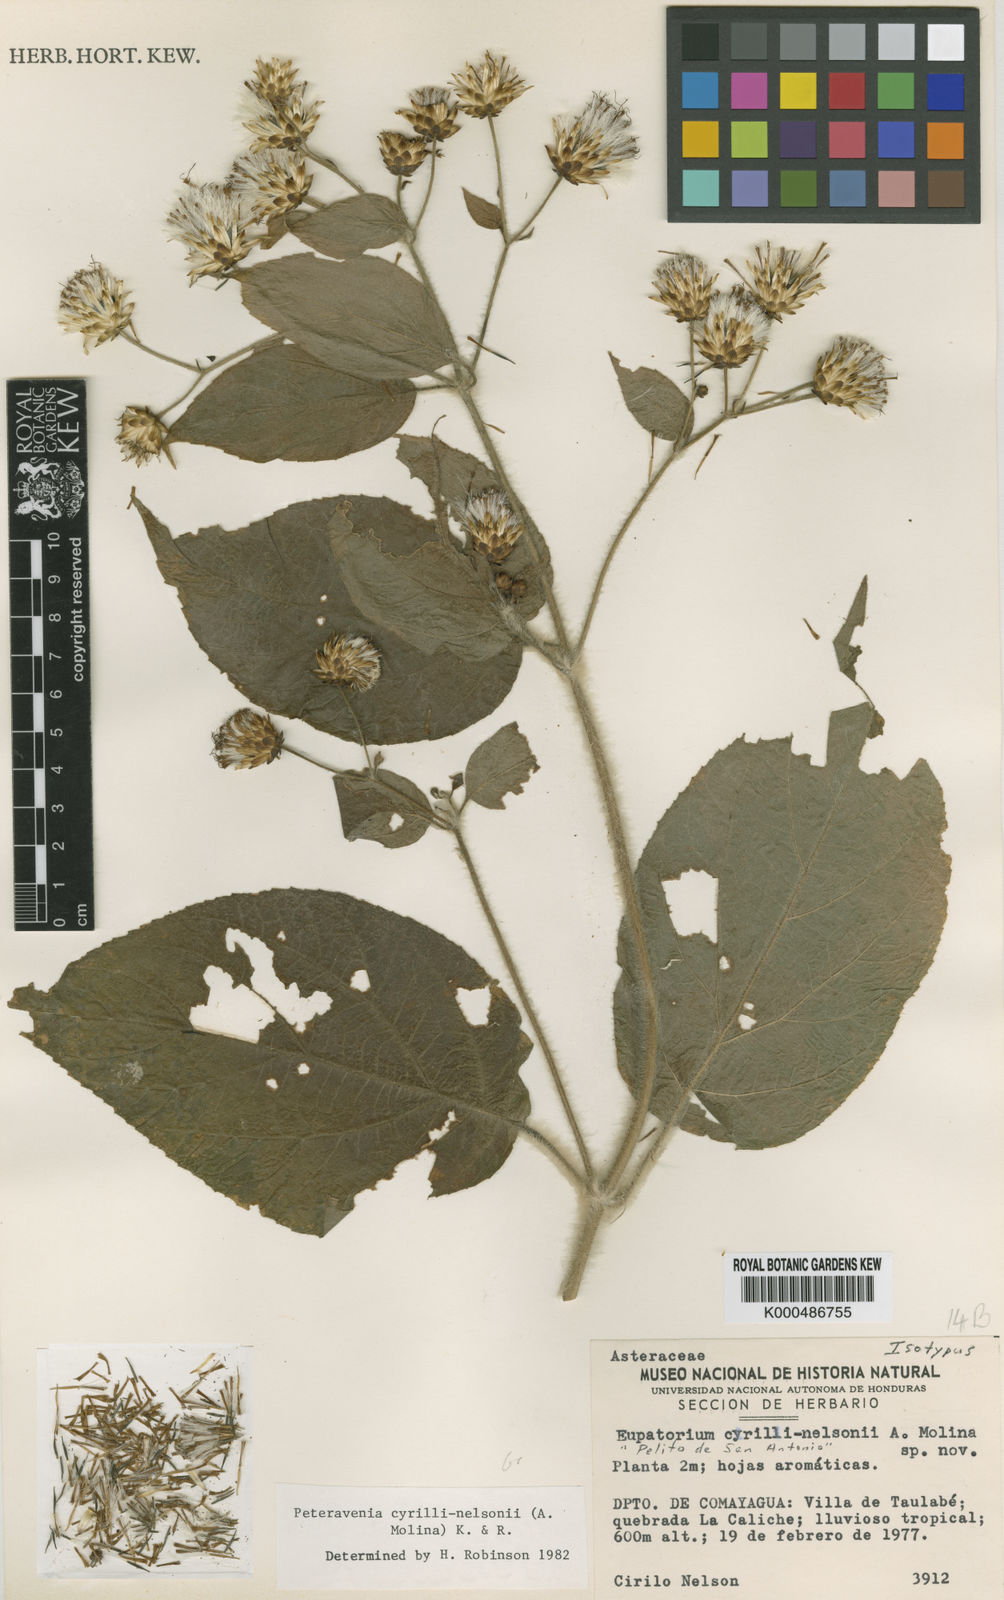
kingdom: Plantae
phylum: Tracheophyta
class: Magnoliopsida
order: Asterales
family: Asteraceae
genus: Peteravenia
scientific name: Peteravenia cyrili-nelsonii
